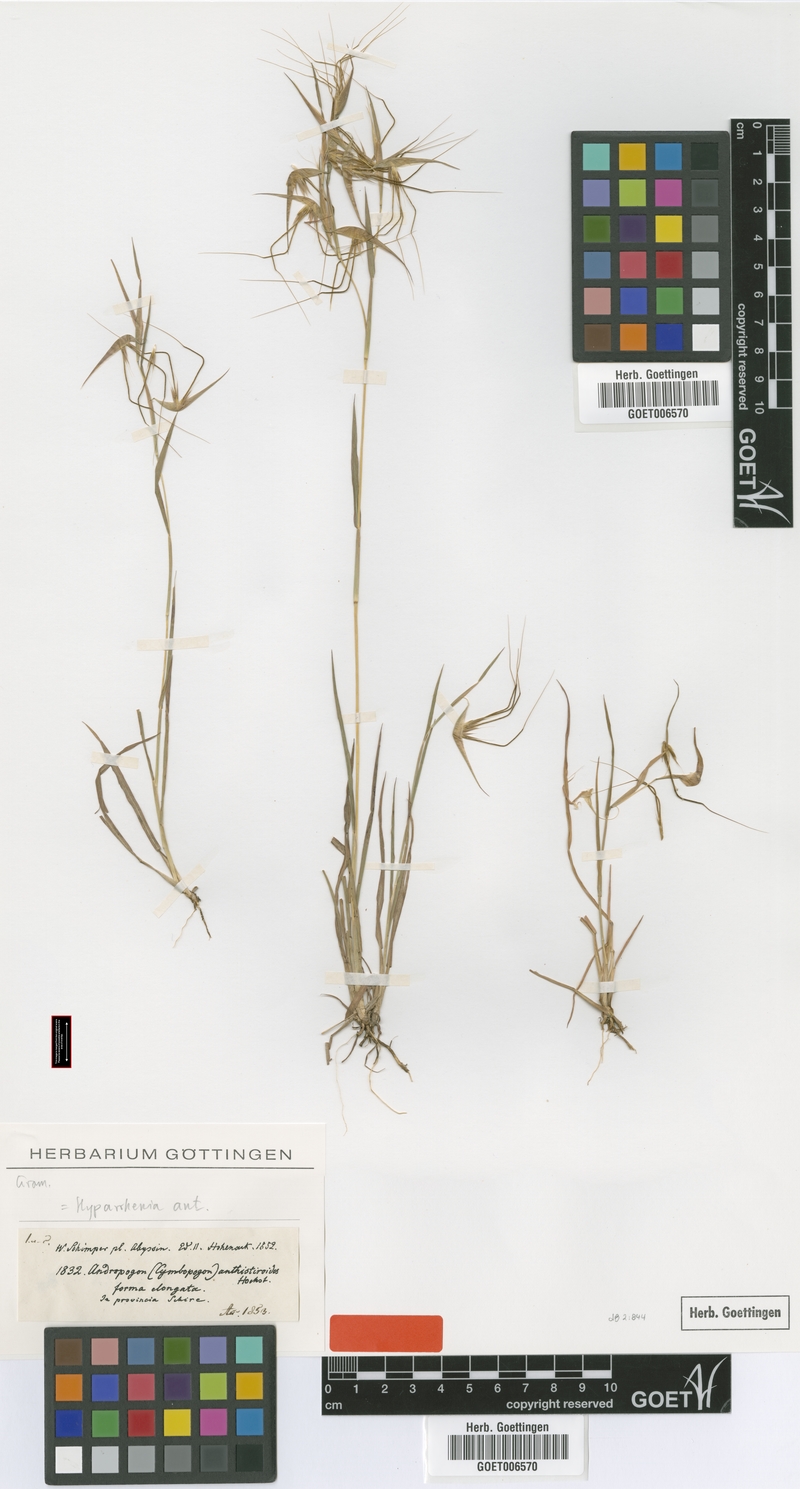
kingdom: Plantae
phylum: Tracheophyta
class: Liliopsida
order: Poales
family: Poaceae
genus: Hyparrhenia
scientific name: Hyparrhenia anthistirioides
